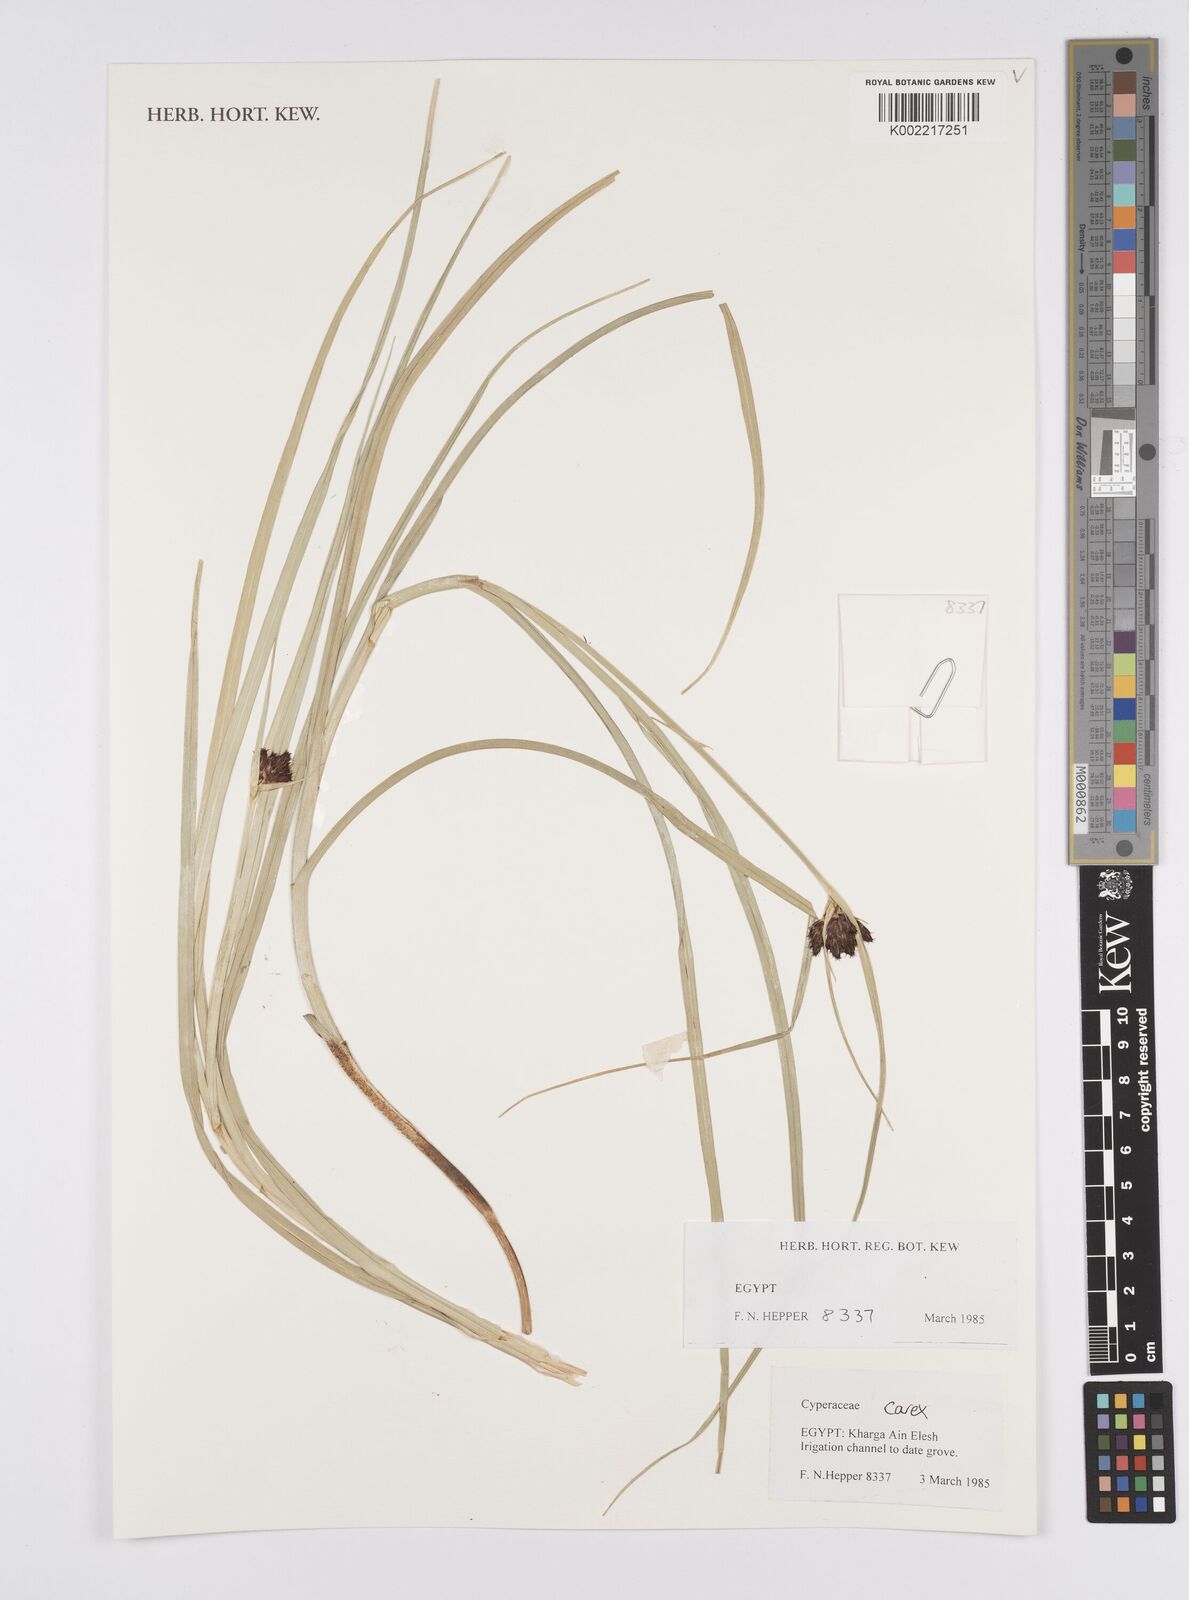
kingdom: Plantae
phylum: Tracheophyta
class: Liliopsida
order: Poales
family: Cyperaceae
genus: Carex
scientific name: Carex
